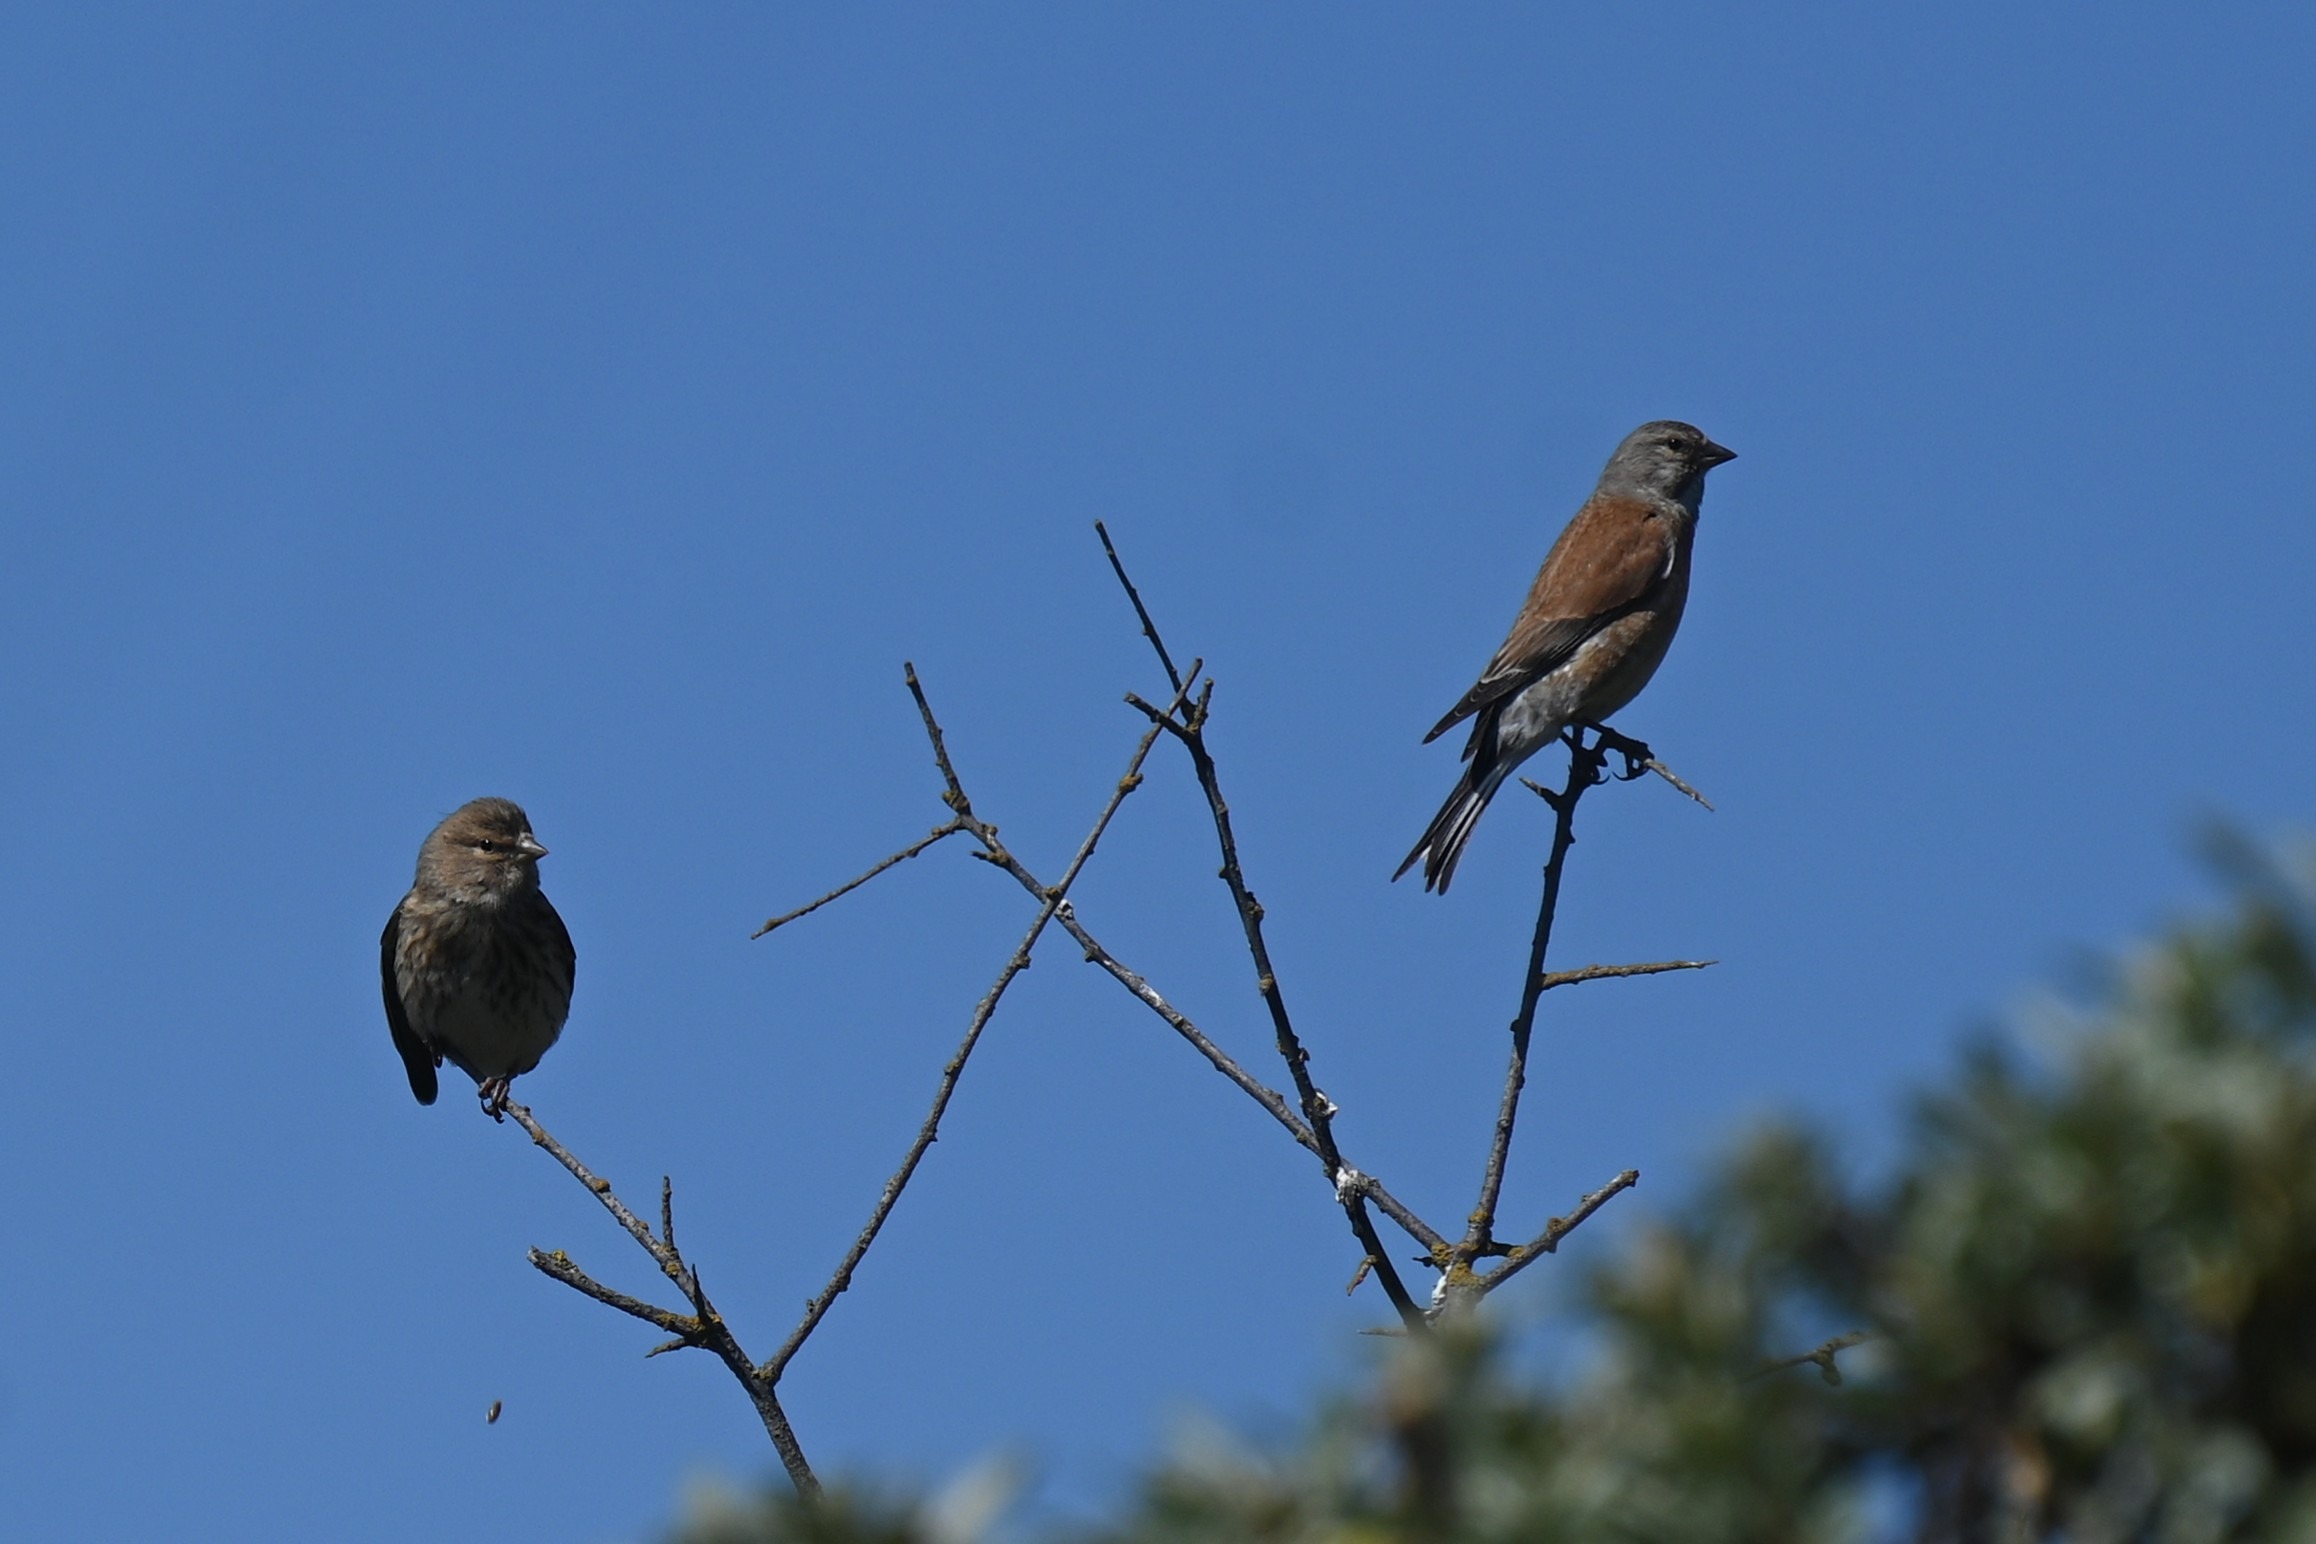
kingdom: Animalia
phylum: Chordata
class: Aves
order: Passeriformes
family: Fringillidae
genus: Linaria
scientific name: Linaria cannabina
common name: Tornirisk
